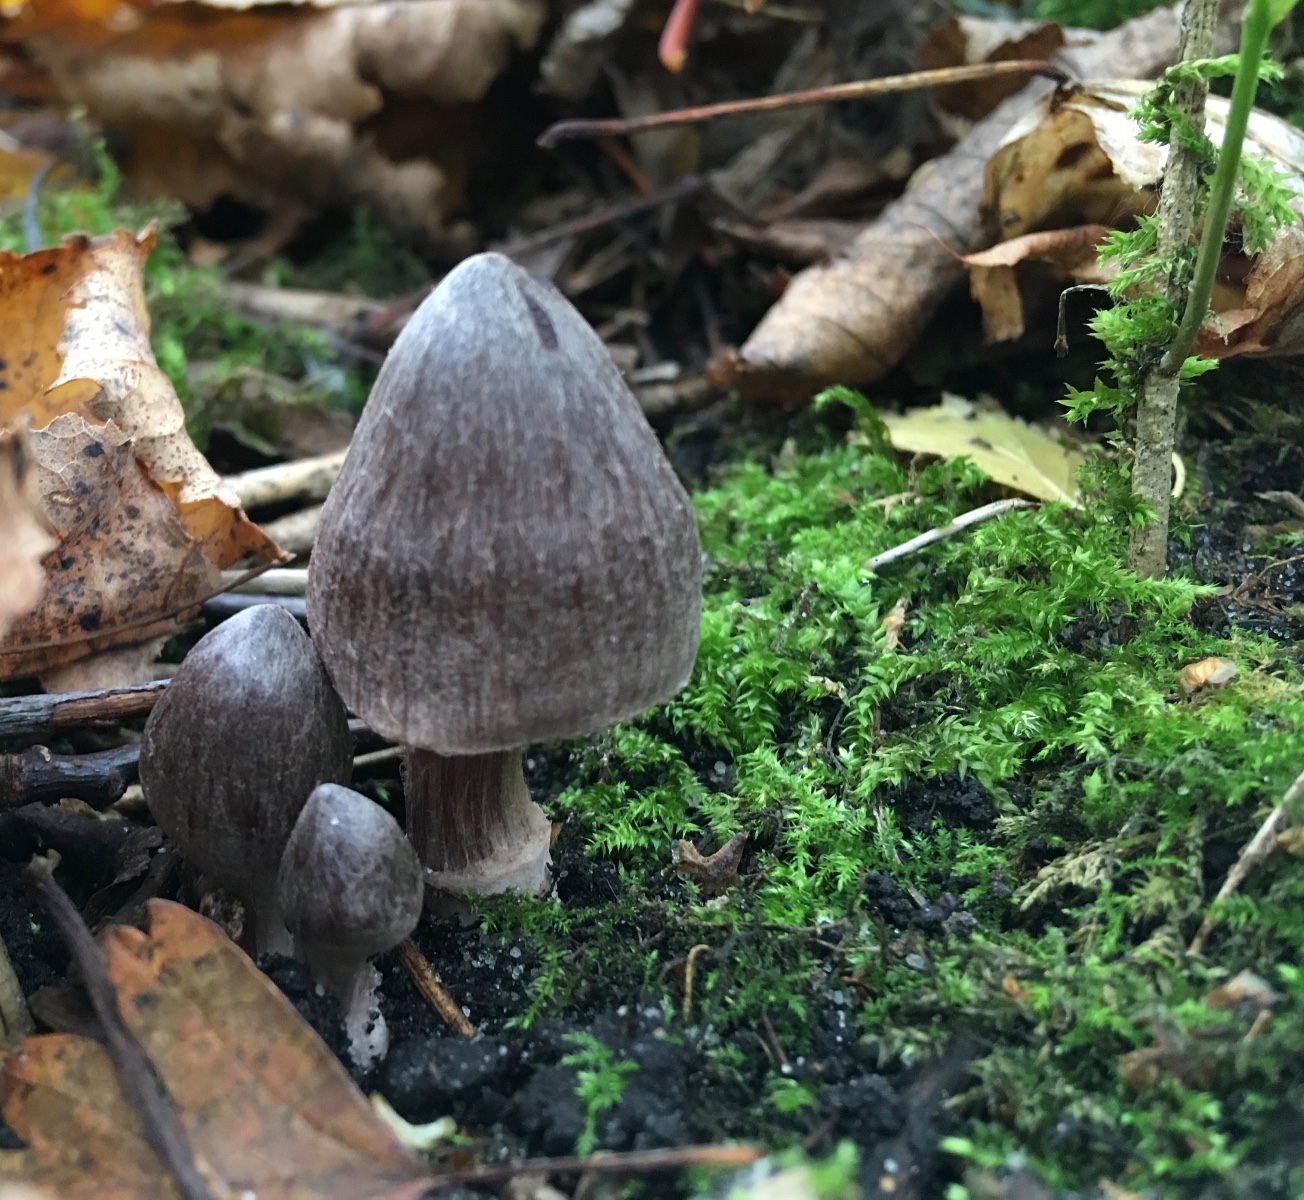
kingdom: Fungi
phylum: Basidiomycota
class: Agaricomycetes
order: Agaricales
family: Cortinariaceae
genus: Cortinarius
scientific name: Cortinarius vernus
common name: sommer-slørhat
